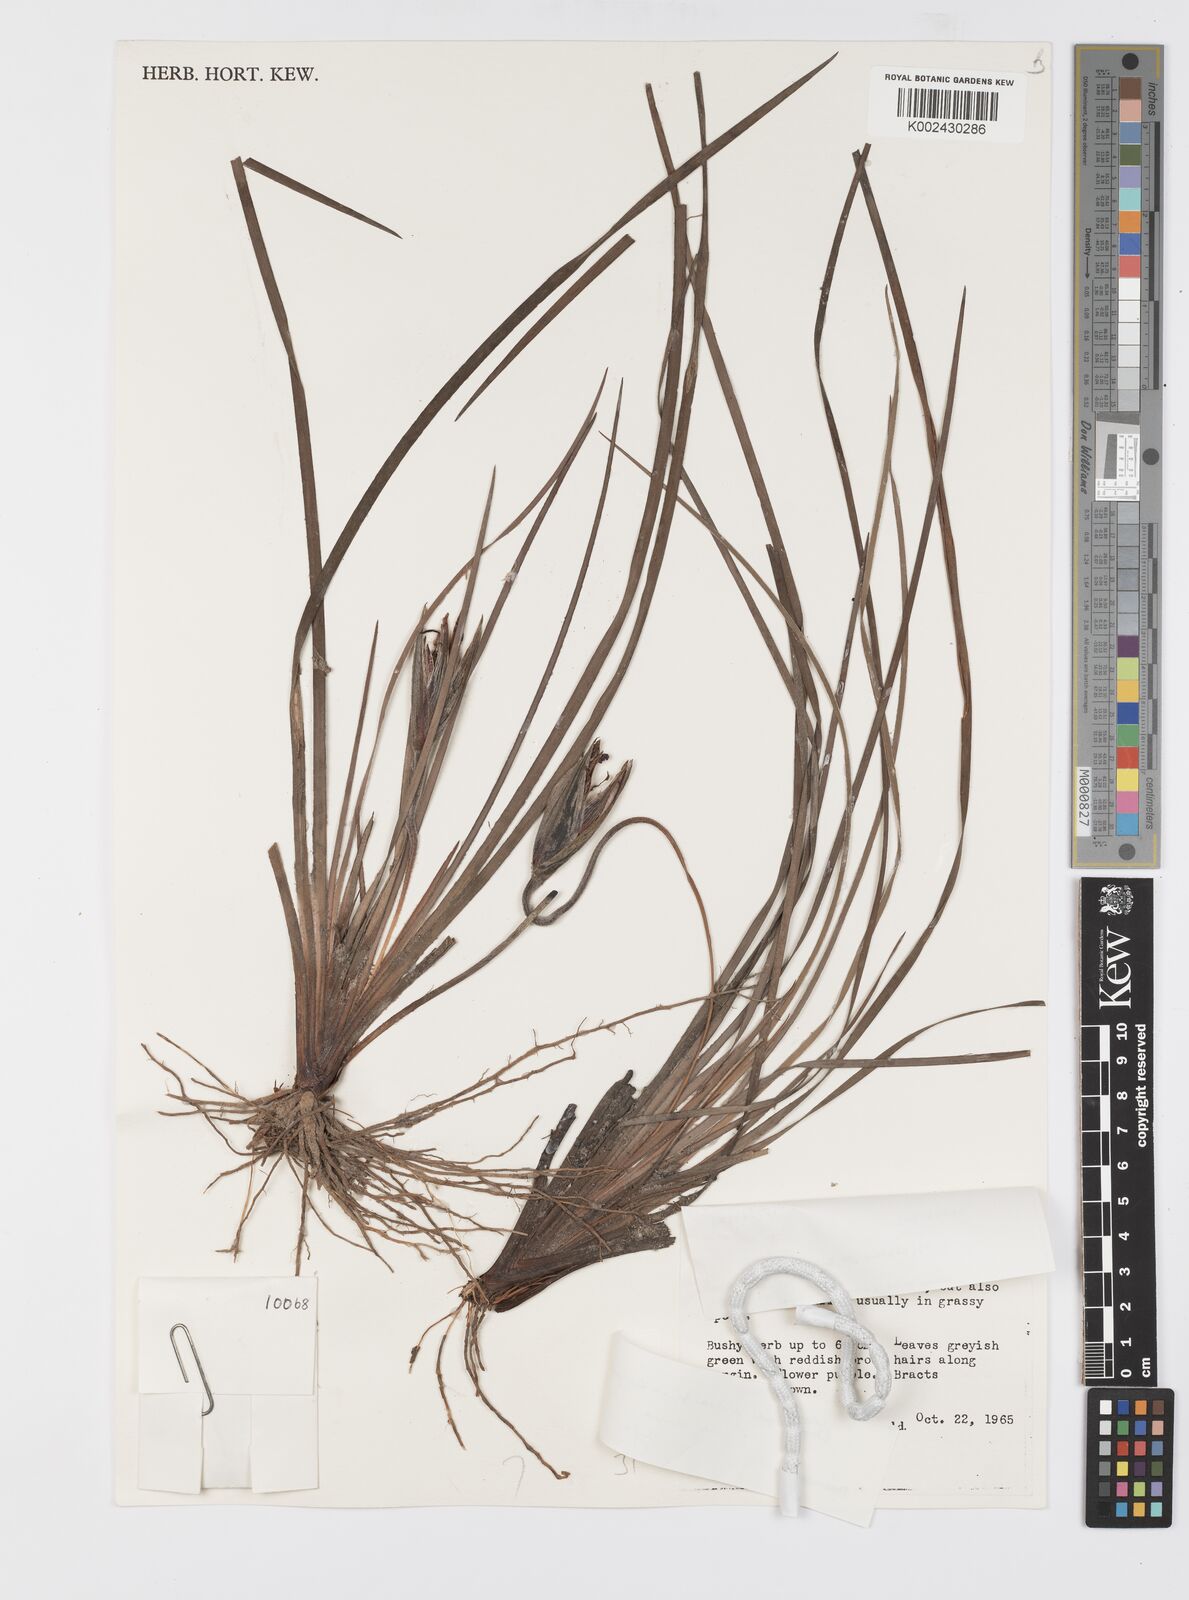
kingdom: Plantae
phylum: Tracheophyta
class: Liliopsida
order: Asparagales
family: Iridaceae
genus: Patersonia
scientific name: Patersonia
